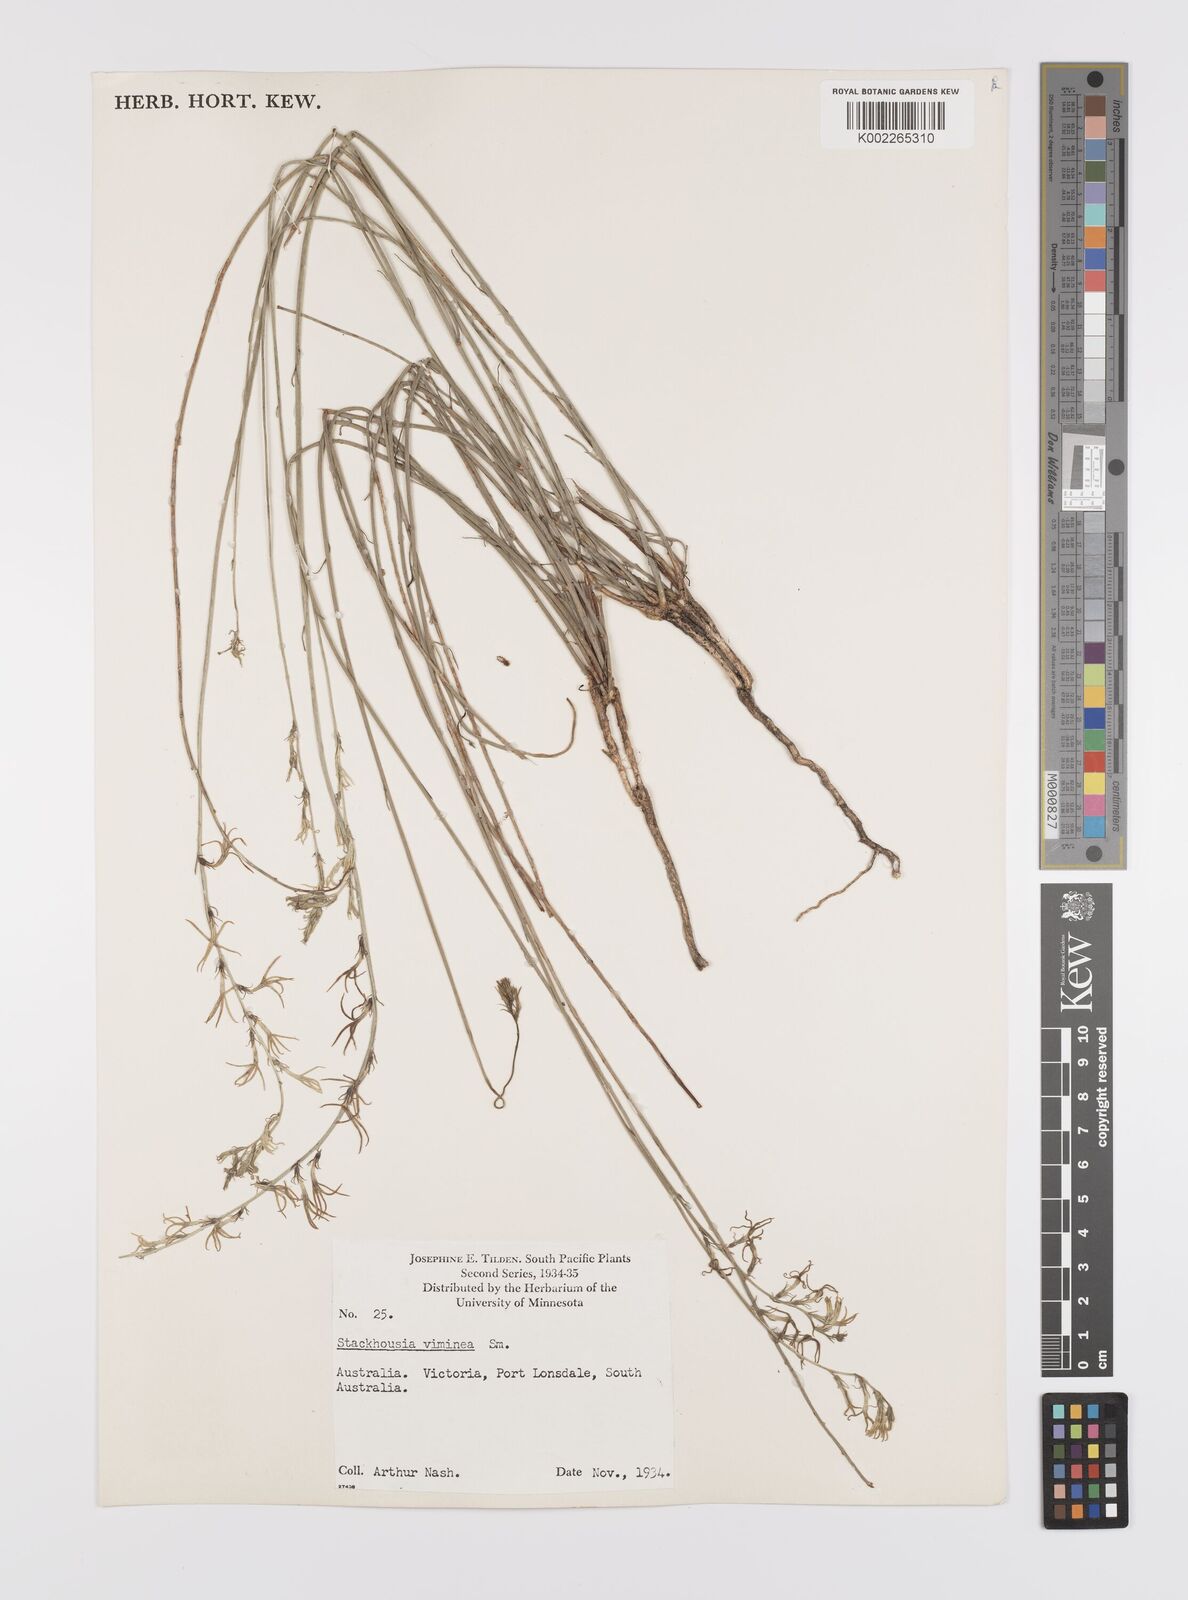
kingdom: Plantae
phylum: Tracheophyta
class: Magnoliopsida
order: Celastrales
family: Celastraceae
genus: Stackhousia
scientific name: Stackhousia viminea
